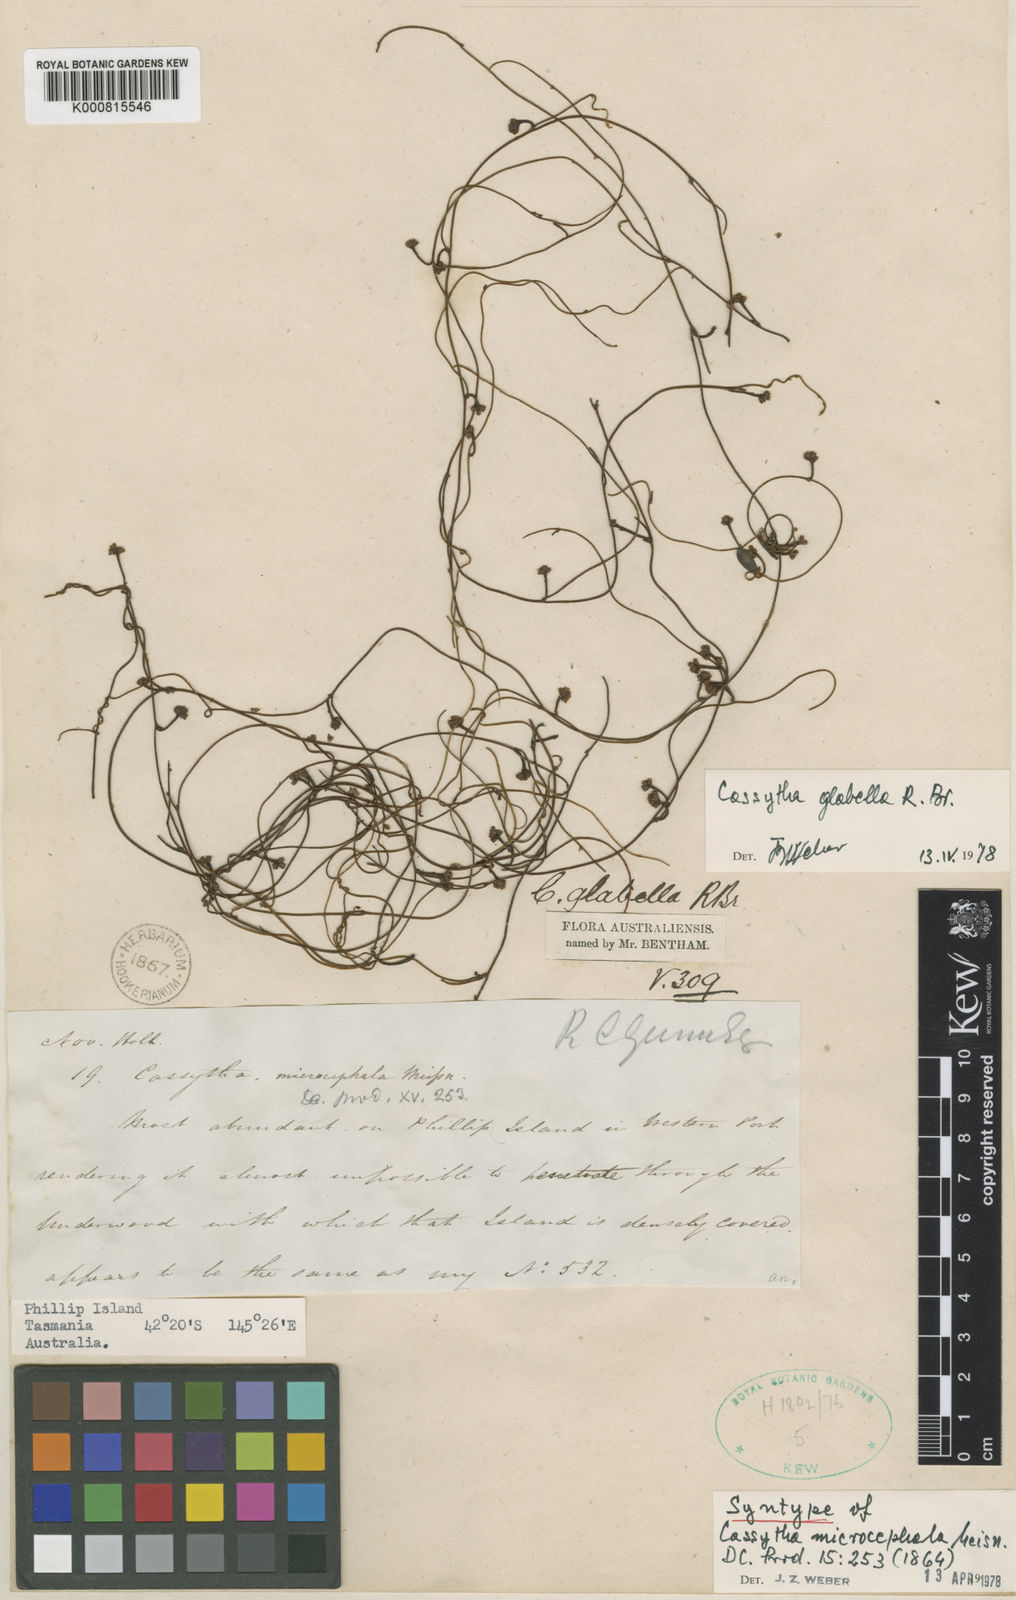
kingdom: Plantae
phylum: Tracheophyta
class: Magnoliopsida
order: Laurales
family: Lauraceae
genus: Cassytha
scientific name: Cassytha glabella
